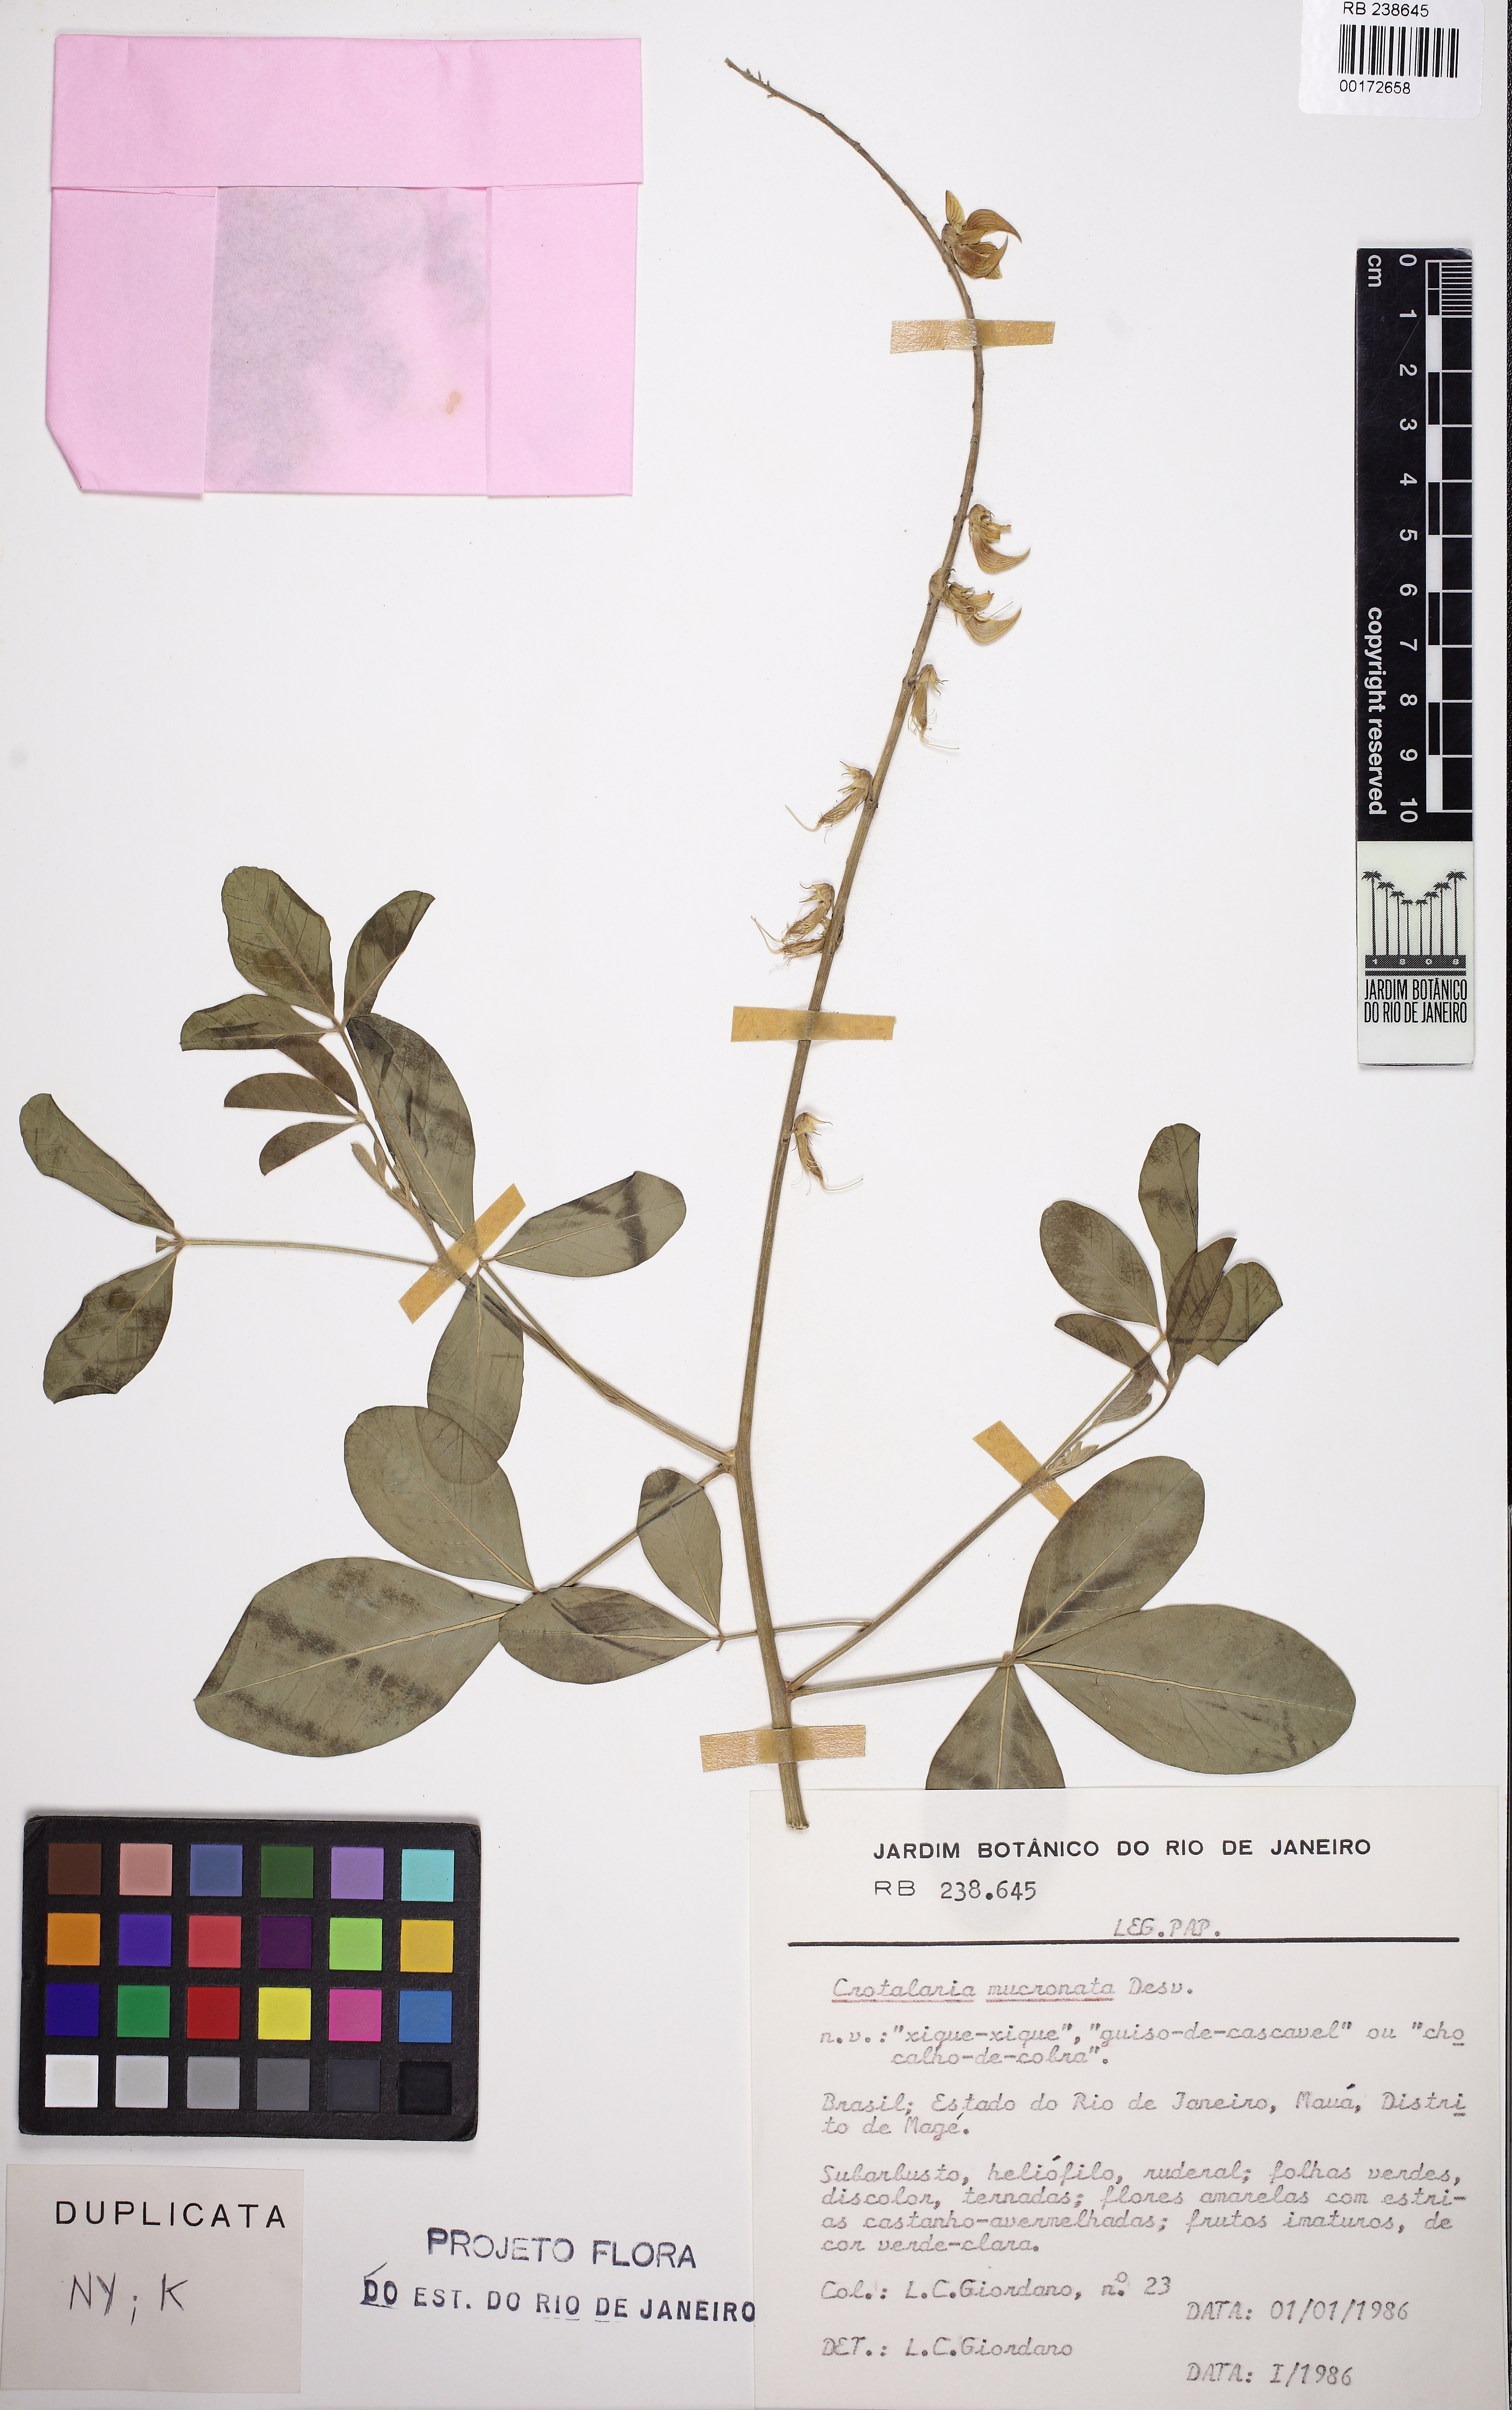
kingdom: Plantae
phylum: Tracheophyta
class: Magnoliopsida
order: Fabales
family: Fabaceae
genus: Crotalaria
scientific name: Crotalaria pallida
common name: Smooth rattlebox
